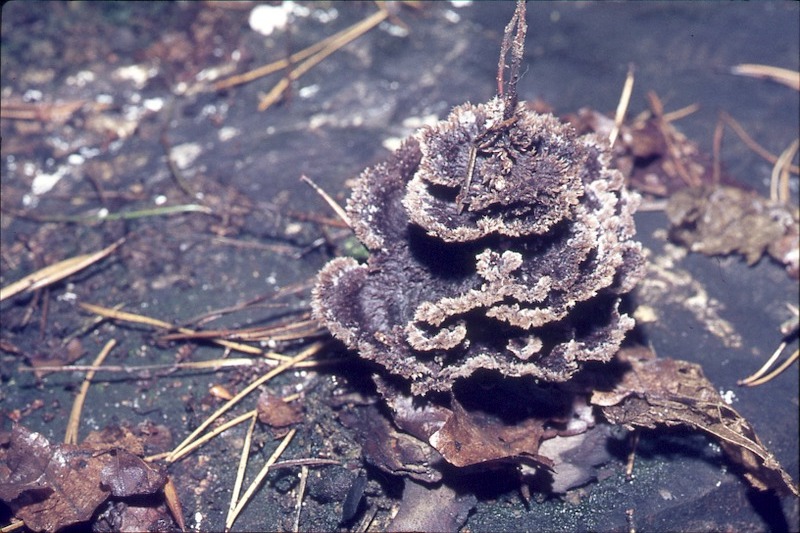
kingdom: Fungi
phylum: Basidiomycota
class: Agaricomycetes
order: Thelephorales
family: Thelephoraceae
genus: Thelephora
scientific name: Thelephora terrestris
